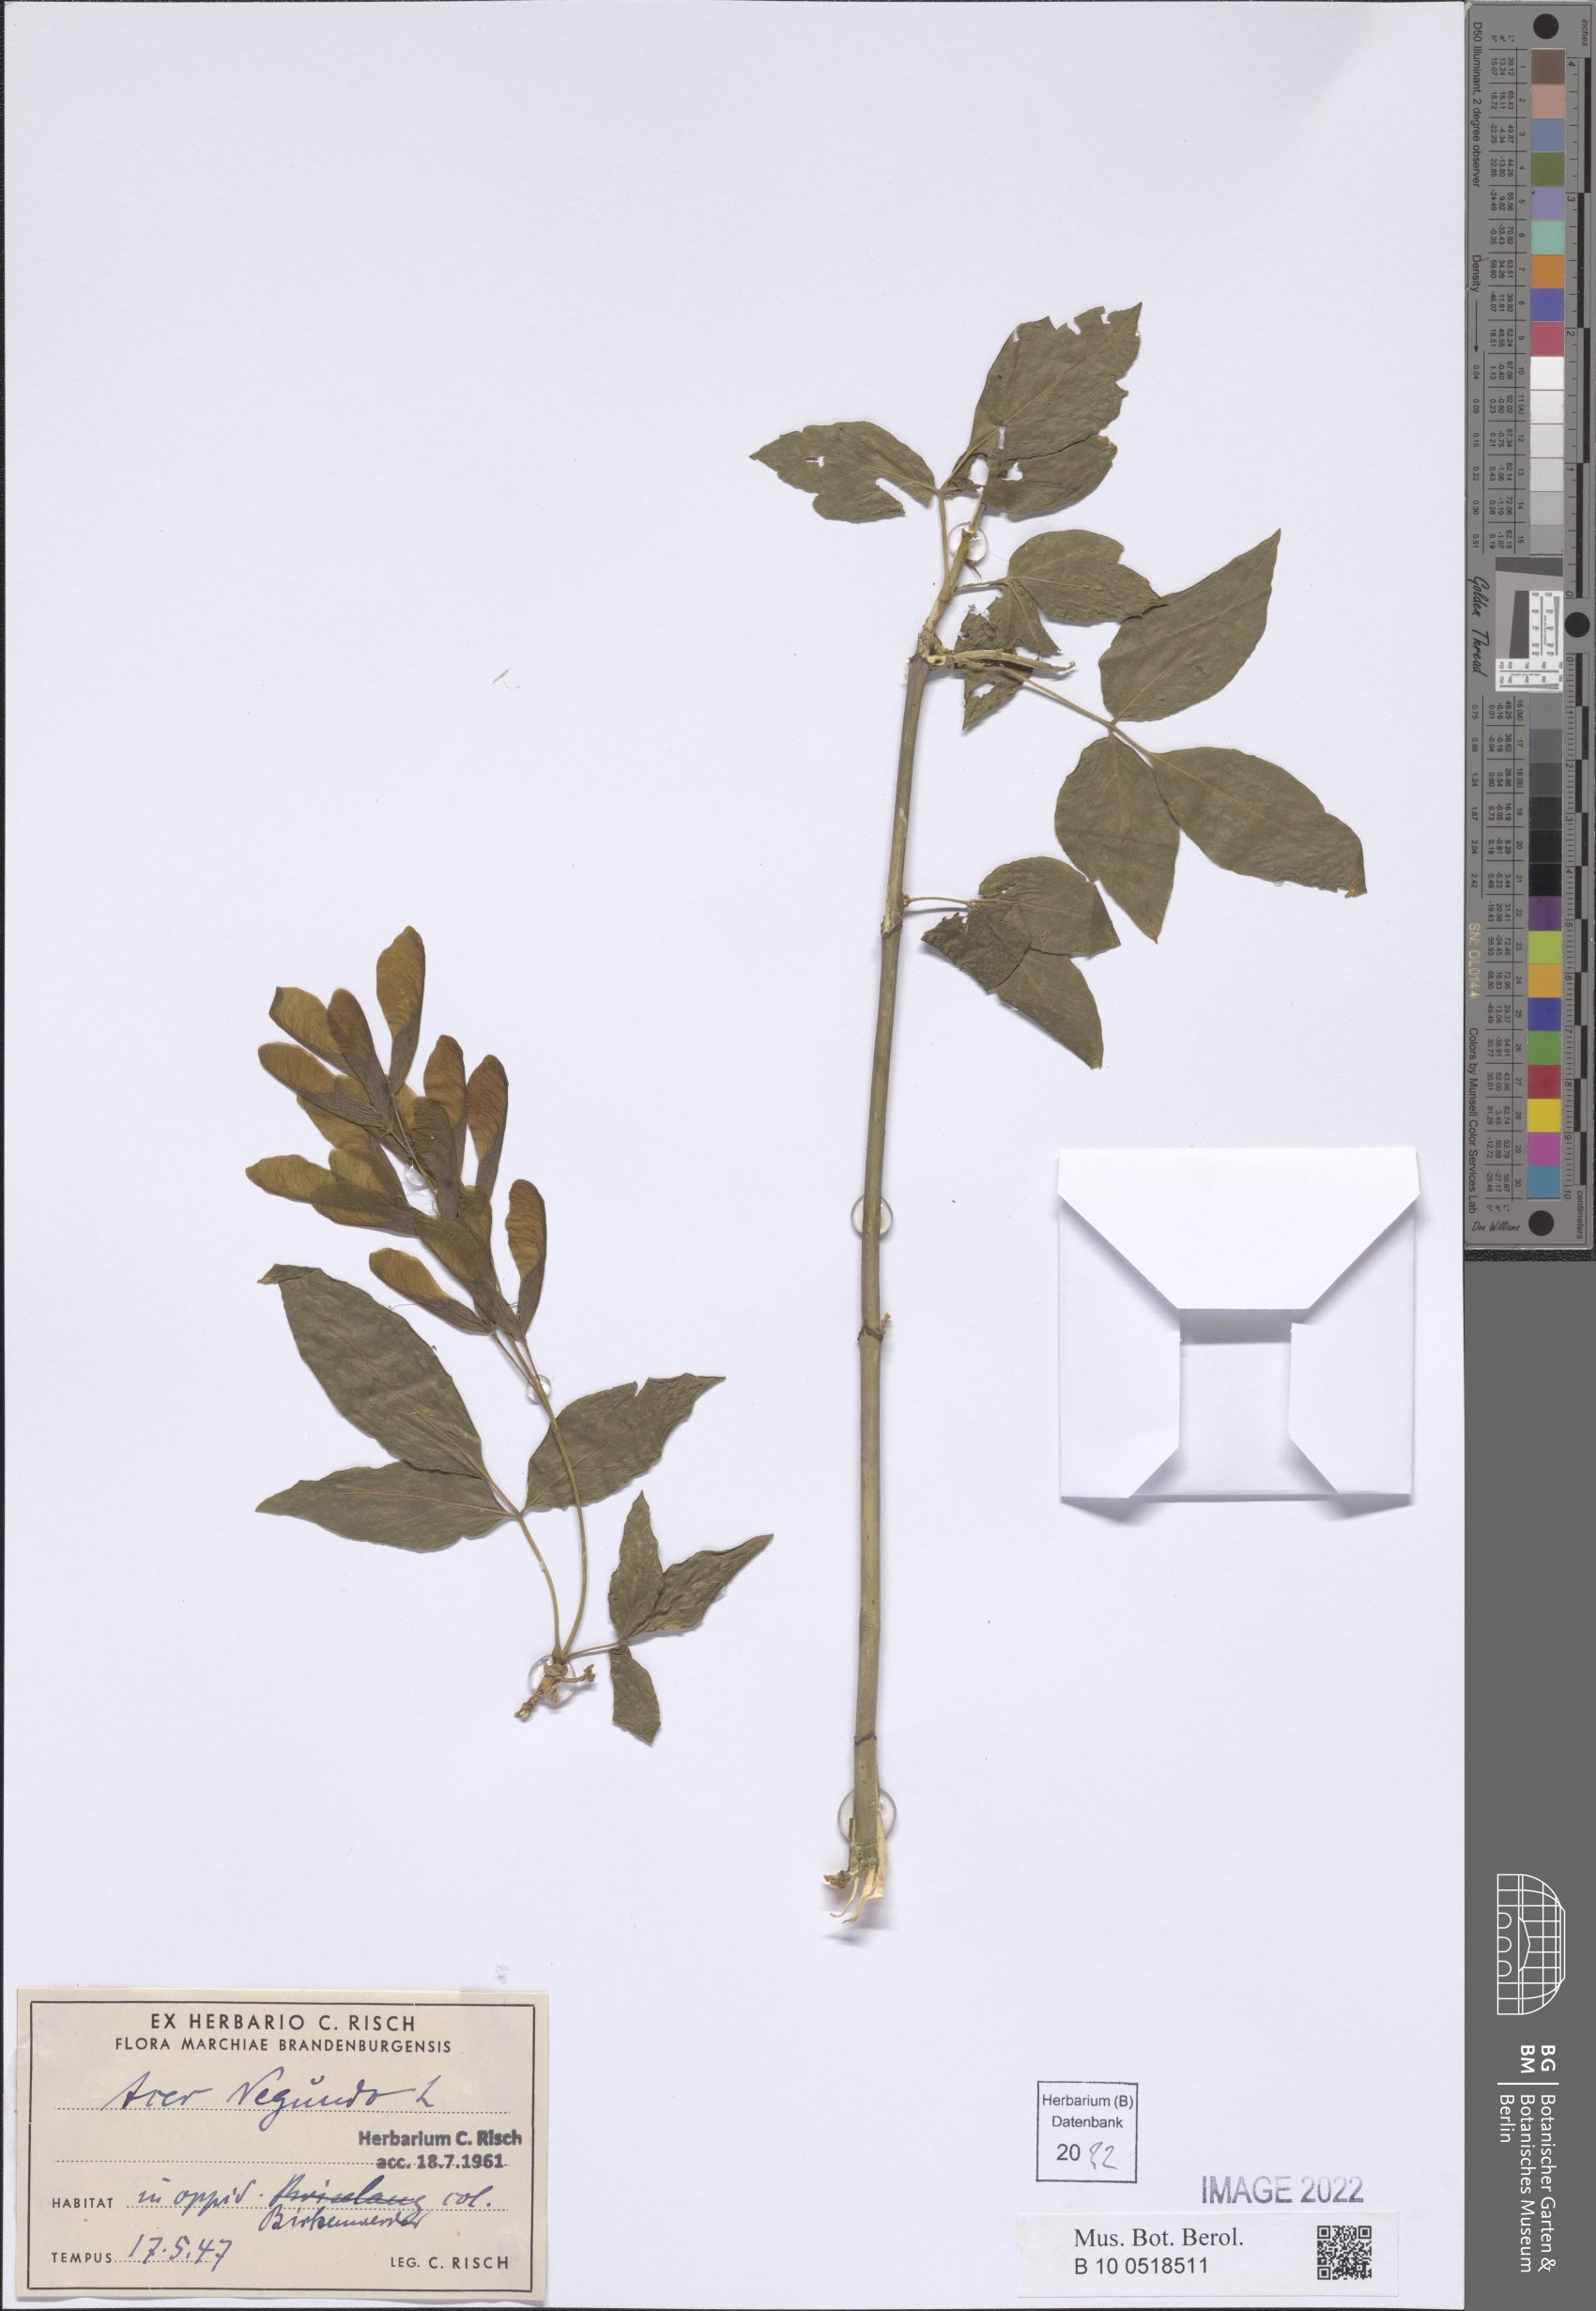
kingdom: Plantae
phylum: Tracheophyta
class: Magnoliopsida
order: Sapindales
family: Sapindaceae
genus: Acer
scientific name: Acer negundo
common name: Ashleaf maple
